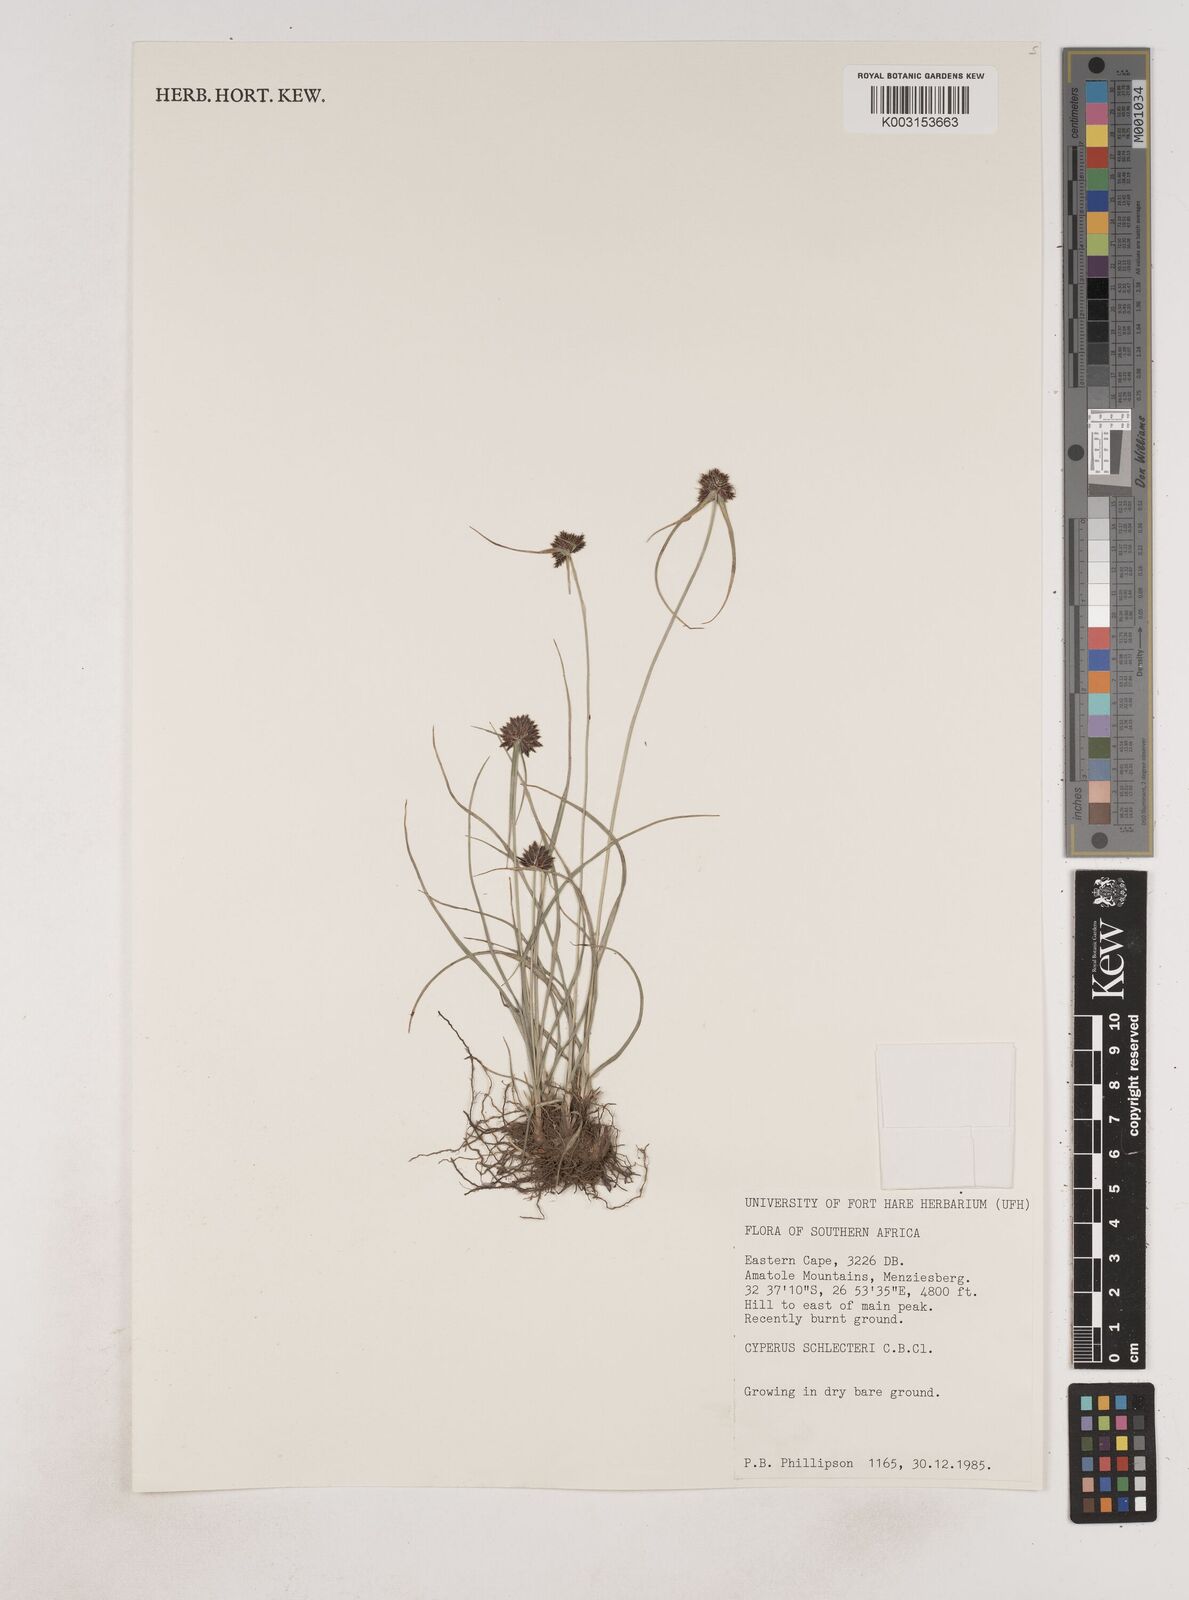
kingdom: Plantae
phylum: Tracheophyta
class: Liliopsida
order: Poales
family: Cyperaceae
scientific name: Cyperaceae
